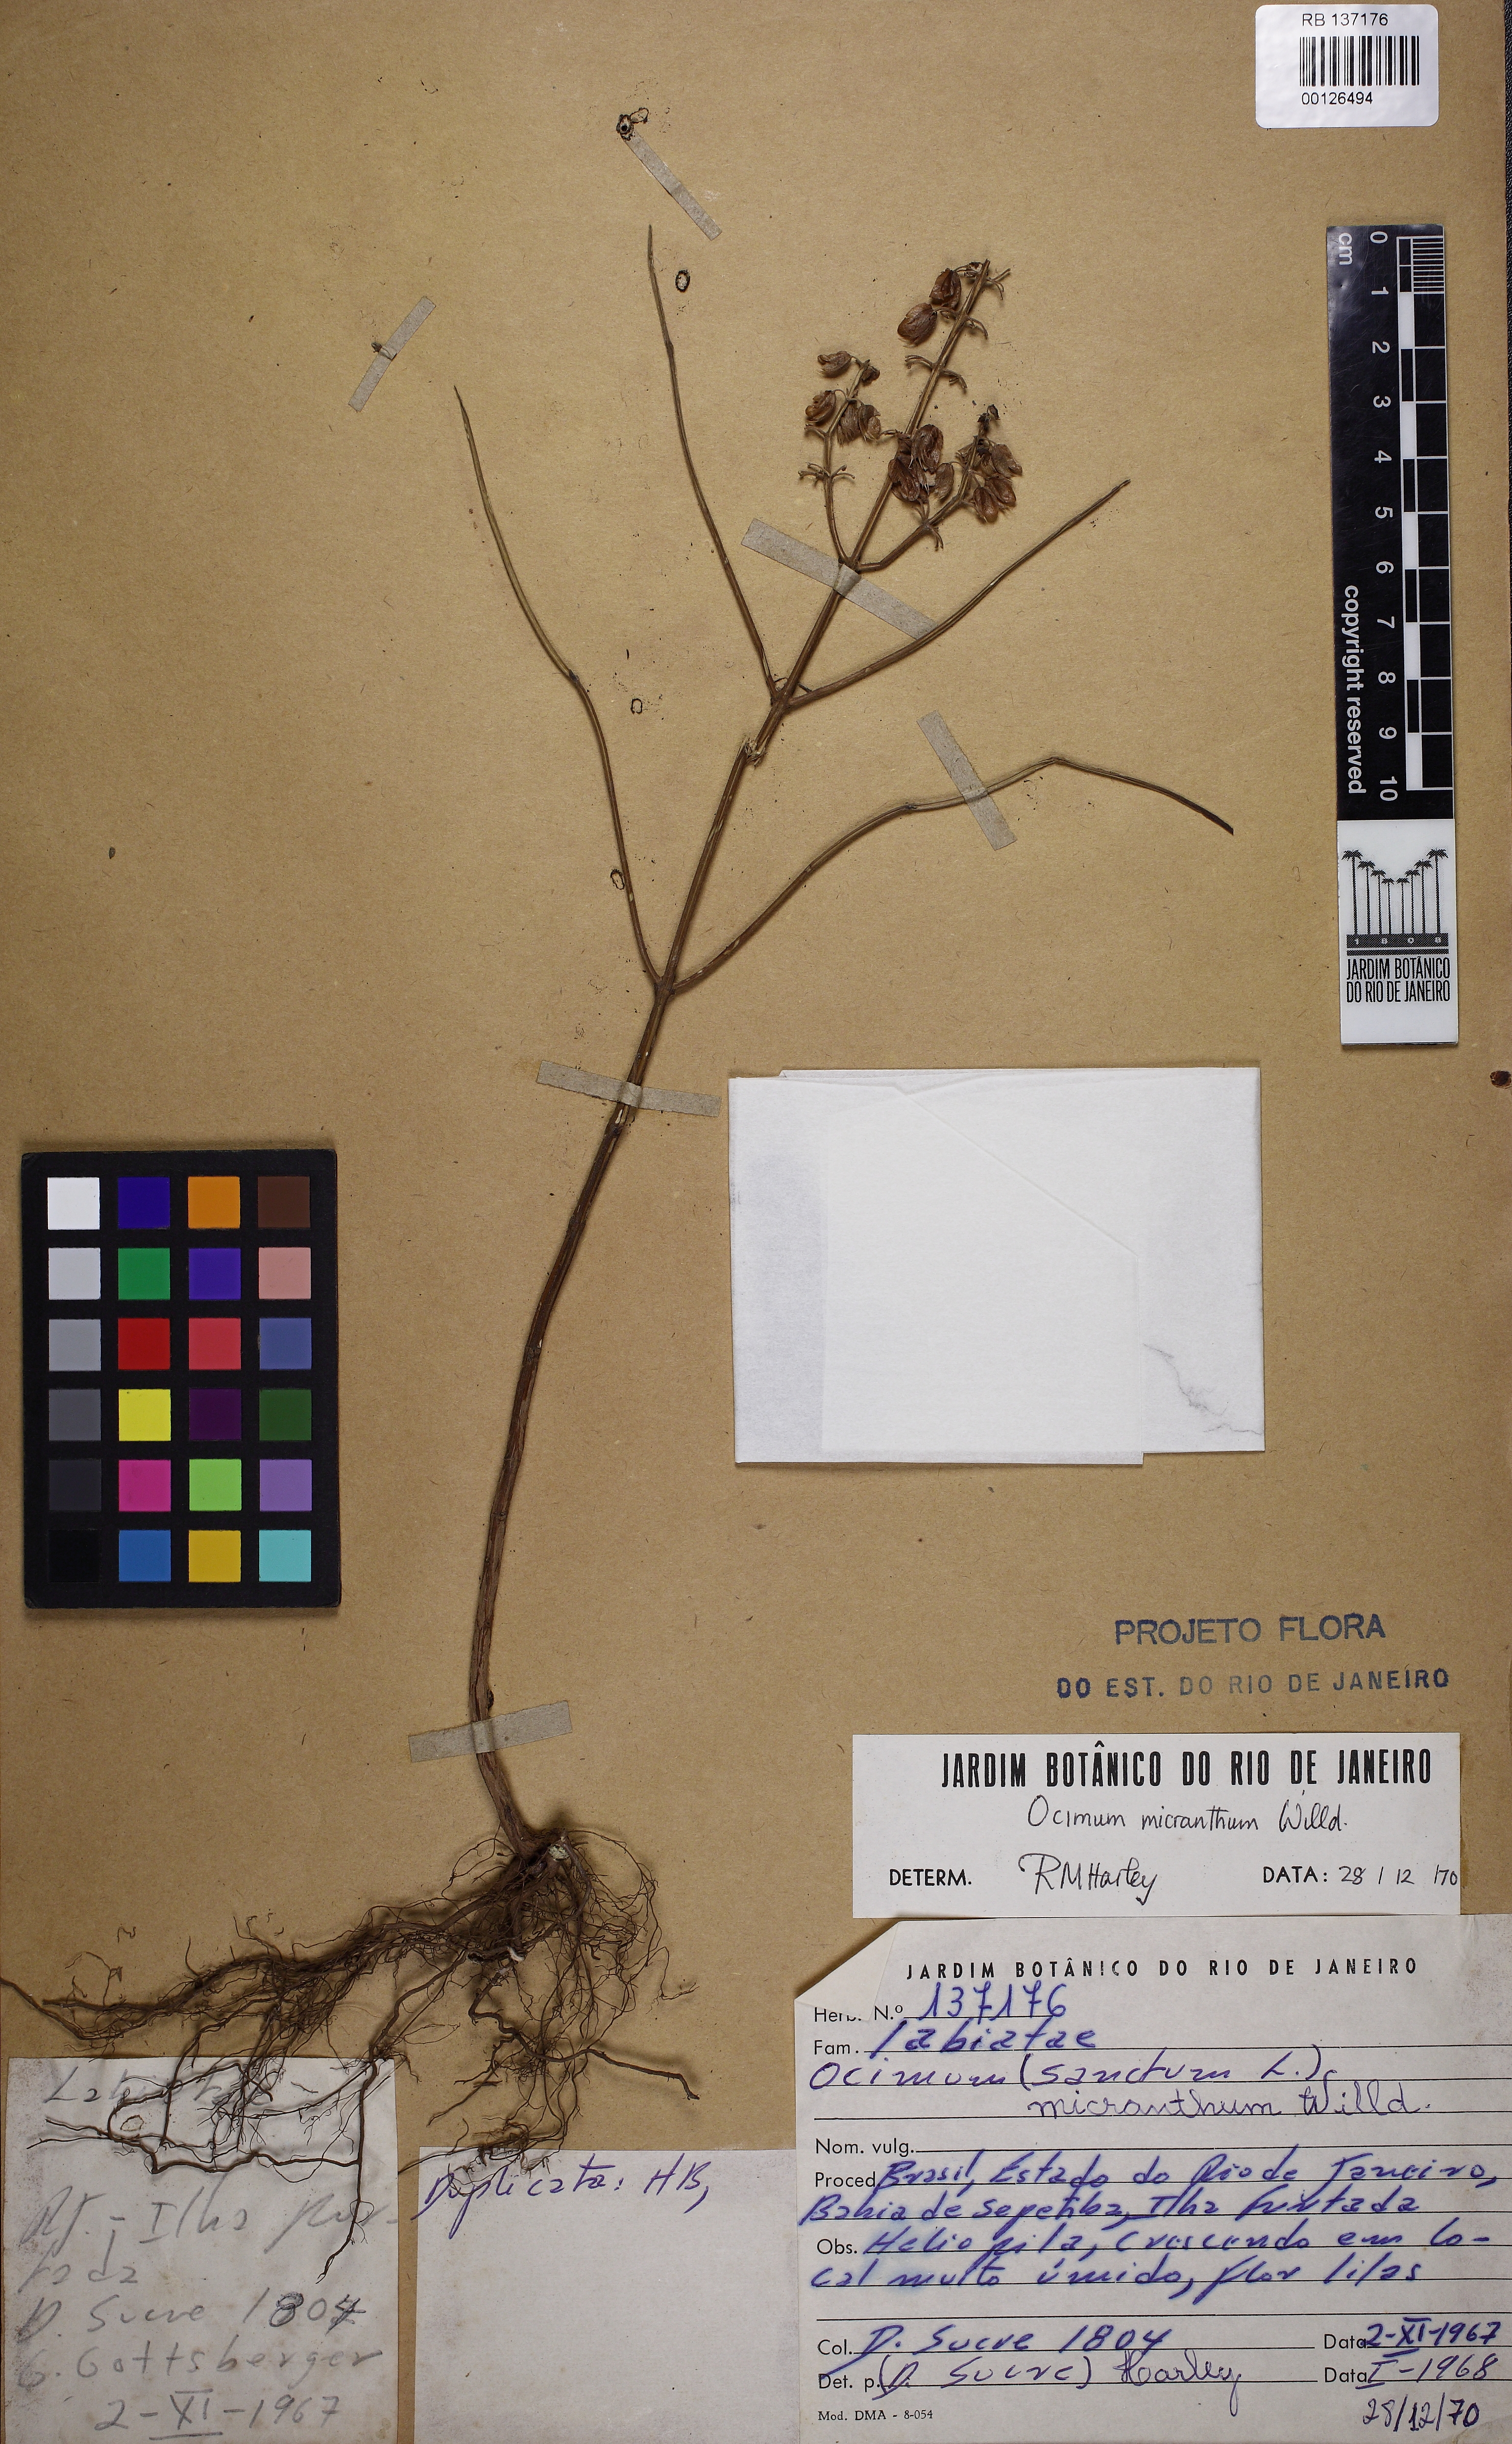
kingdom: Plantae
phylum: Tracheophyta
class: Magnoliopsida
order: Lamiales
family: Lamiaceae
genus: Ocimum
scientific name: Ocimum campechianum
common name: Mosquito basil
